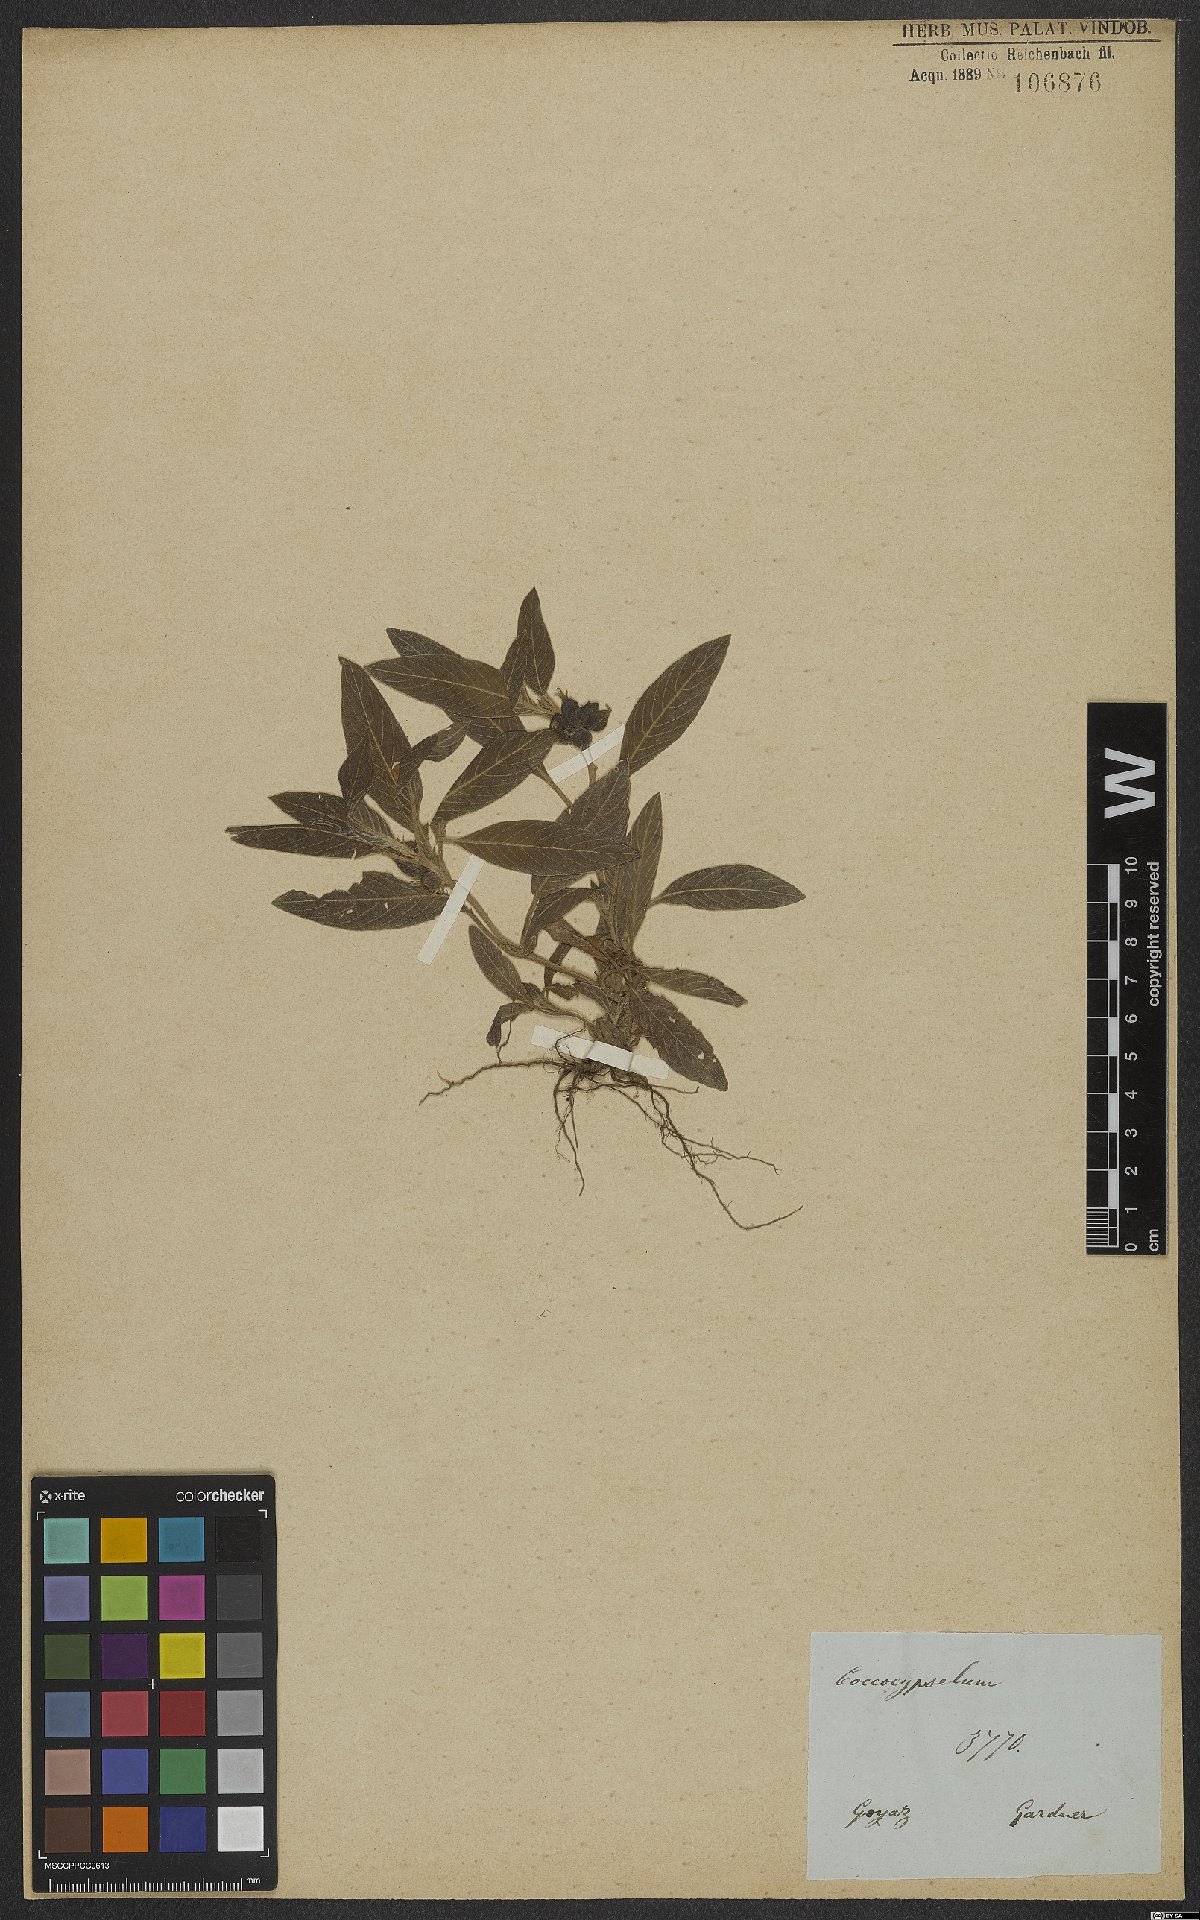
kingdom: Plantae
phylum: Tracheophyta
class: Magnoliopsida
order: Gentianales
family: Rubiaceae
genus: Coccocypselum
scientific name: Coccocypselum lanceolatum
